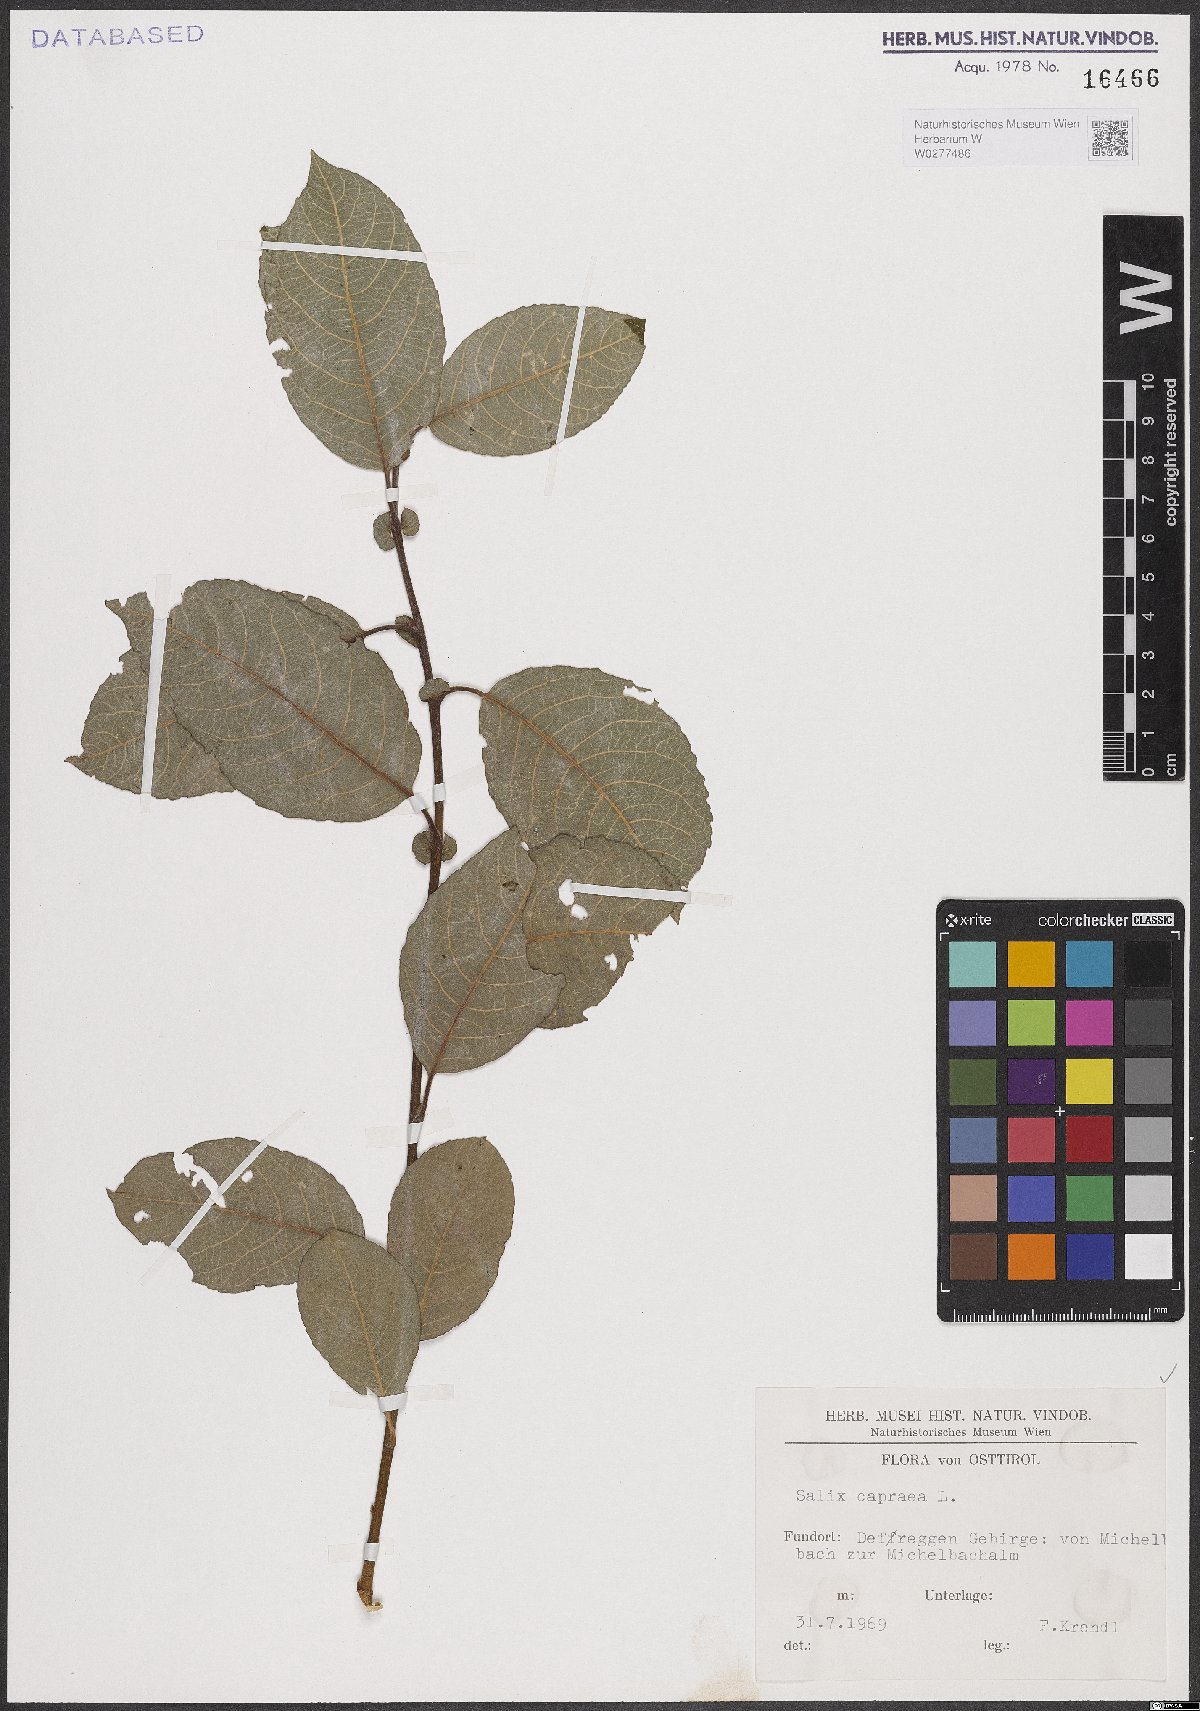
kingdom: Plantae
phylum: Tracheophyta
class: Magnoliopsida
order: Malpighiales
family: Salicaceae
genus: Salix
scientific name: Salix caprea
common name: Goat willow
